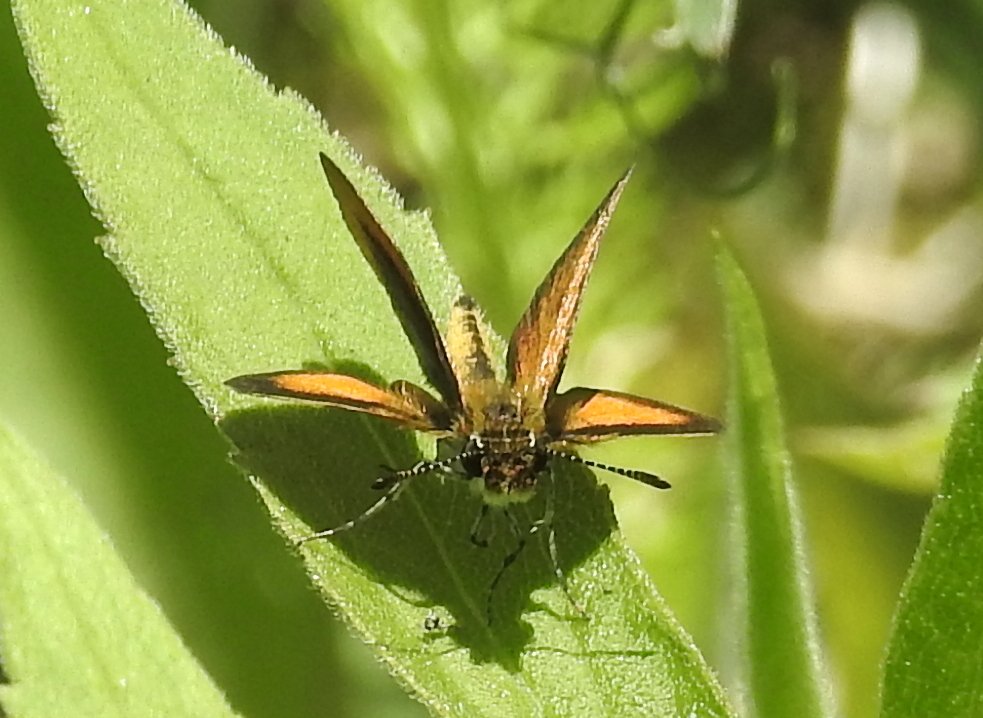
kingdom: Animalia
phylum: Arthropoda
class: Insecta
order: Lepidoptera
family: Hesperiidae
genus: Ancyloxypha
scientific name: Ancyloxypha numitor
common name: Least Skipper
